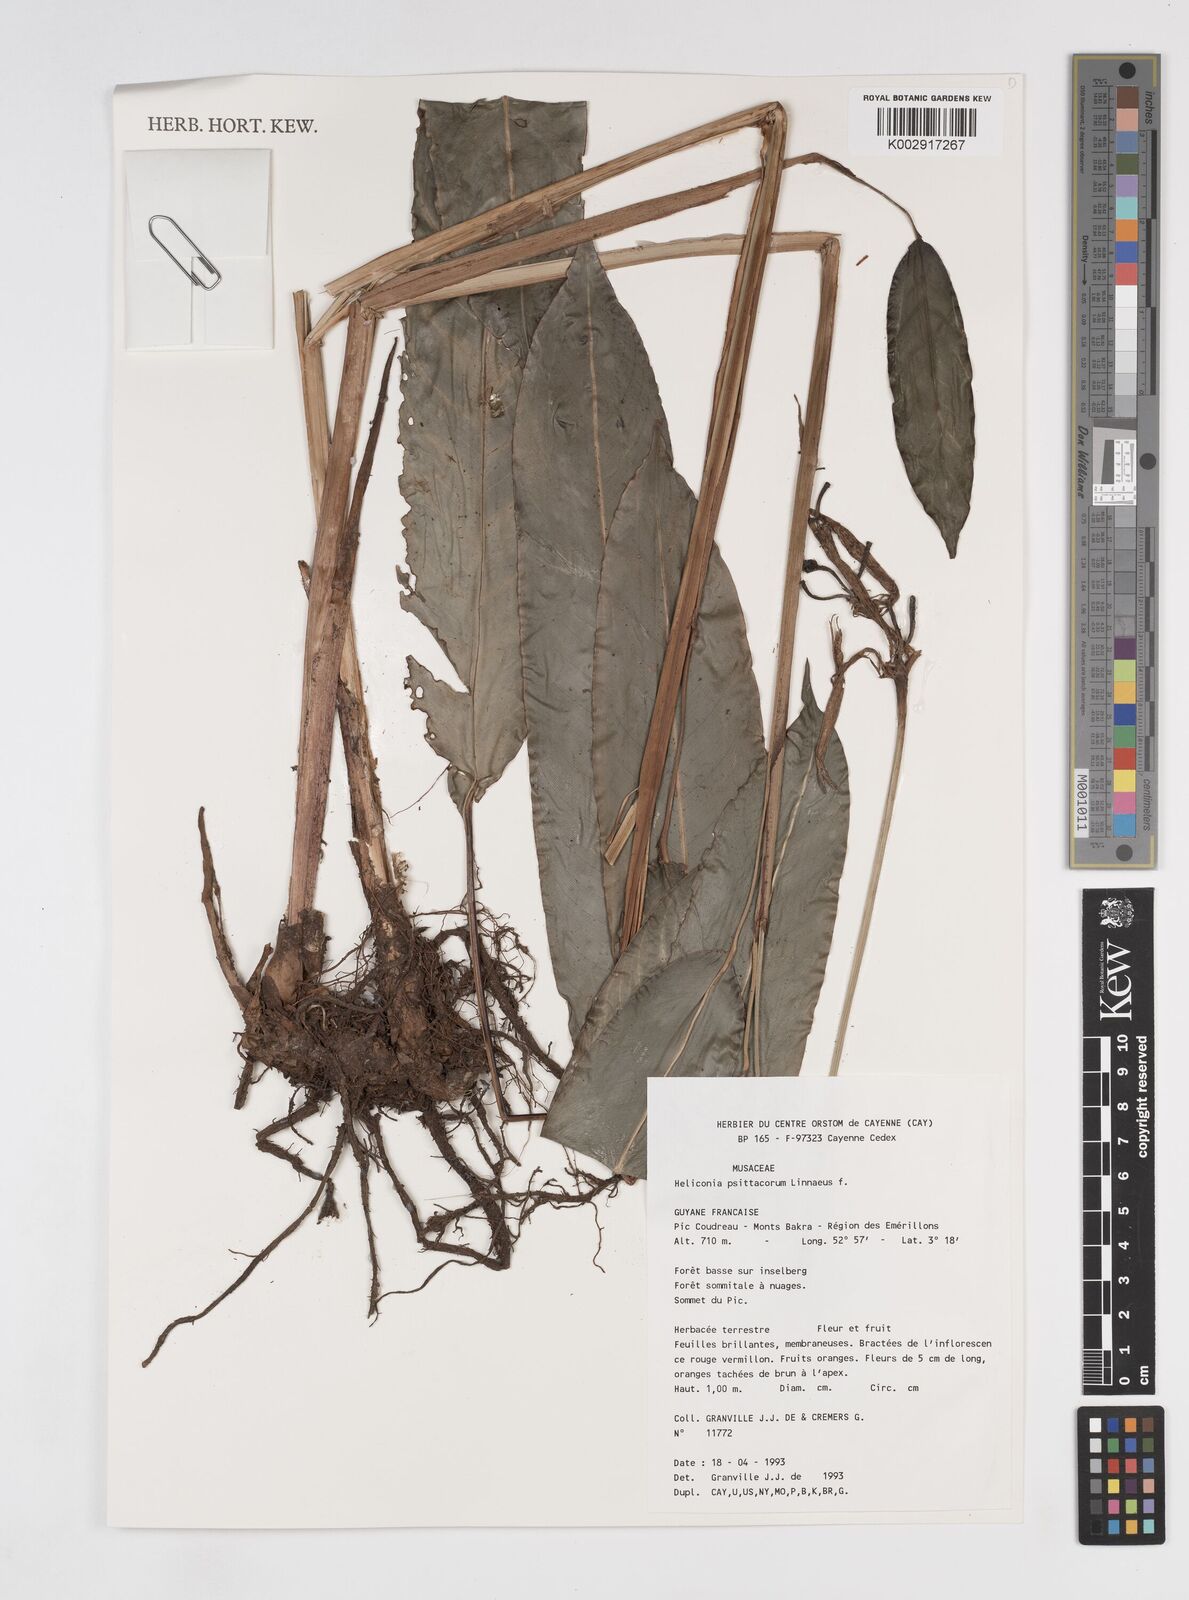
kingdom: Plantae
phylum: Tracheophyta
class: Liliopsida
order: Zingiberales
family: Heliconiaceae
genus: Heliconia
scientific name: Heliconia psittacorum
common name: Parrot's-flower
